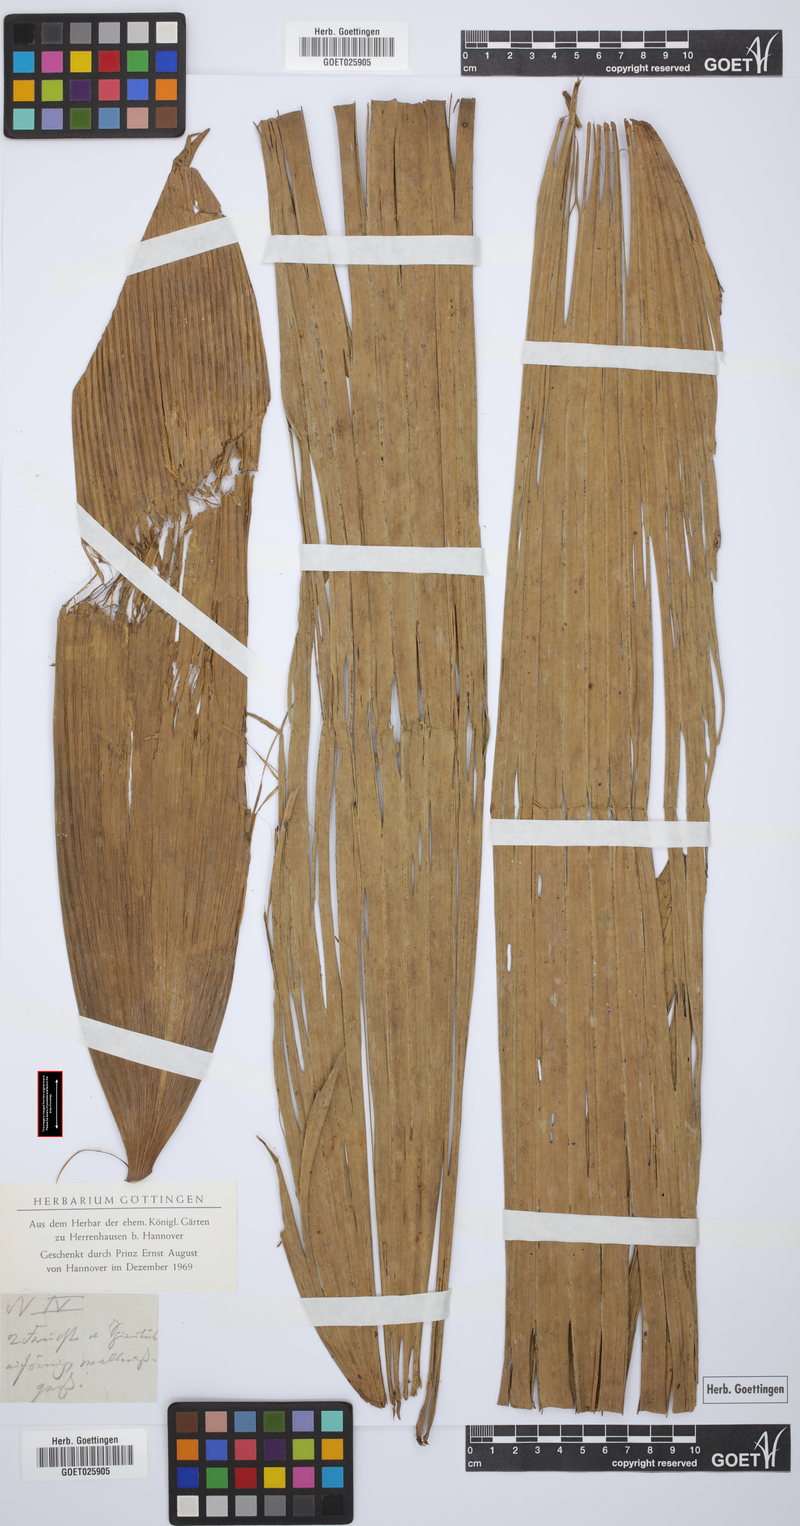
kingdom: Plantae
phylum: Tracheophyta
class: Liliopsida
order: Arecales
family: Arecaceae
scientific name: Arecaceae
